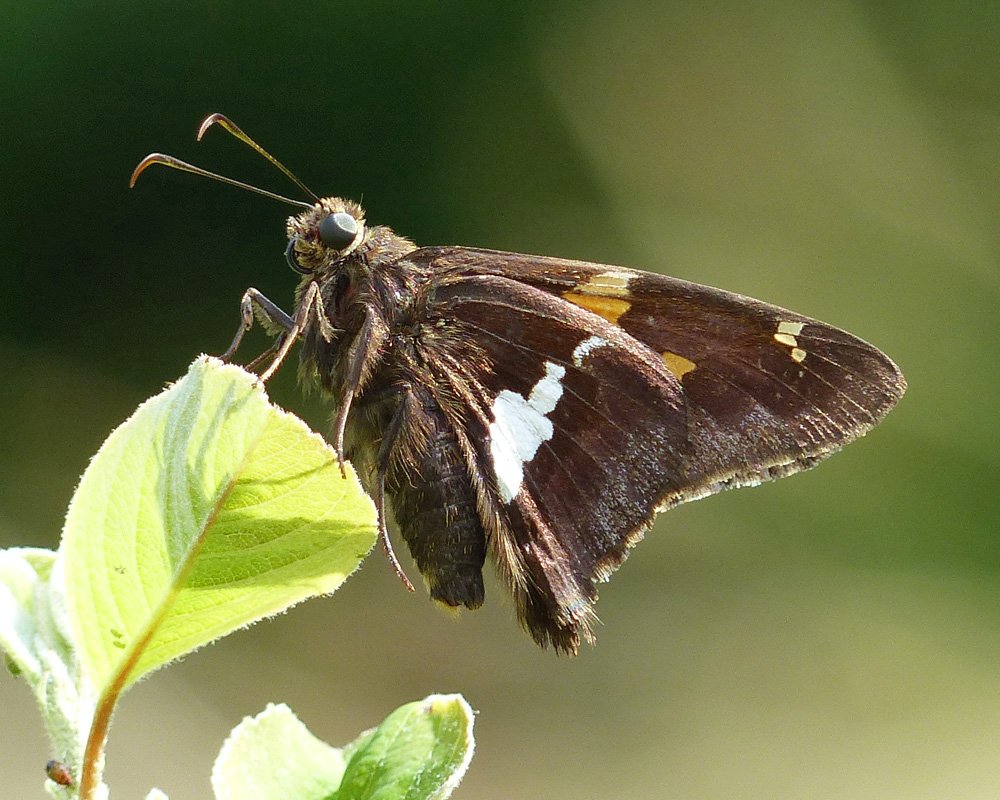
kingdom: Animalia
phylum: Arthropoda
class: Insecta
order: Lepidoptera
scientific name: Lepidoptera
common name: Butterflies
